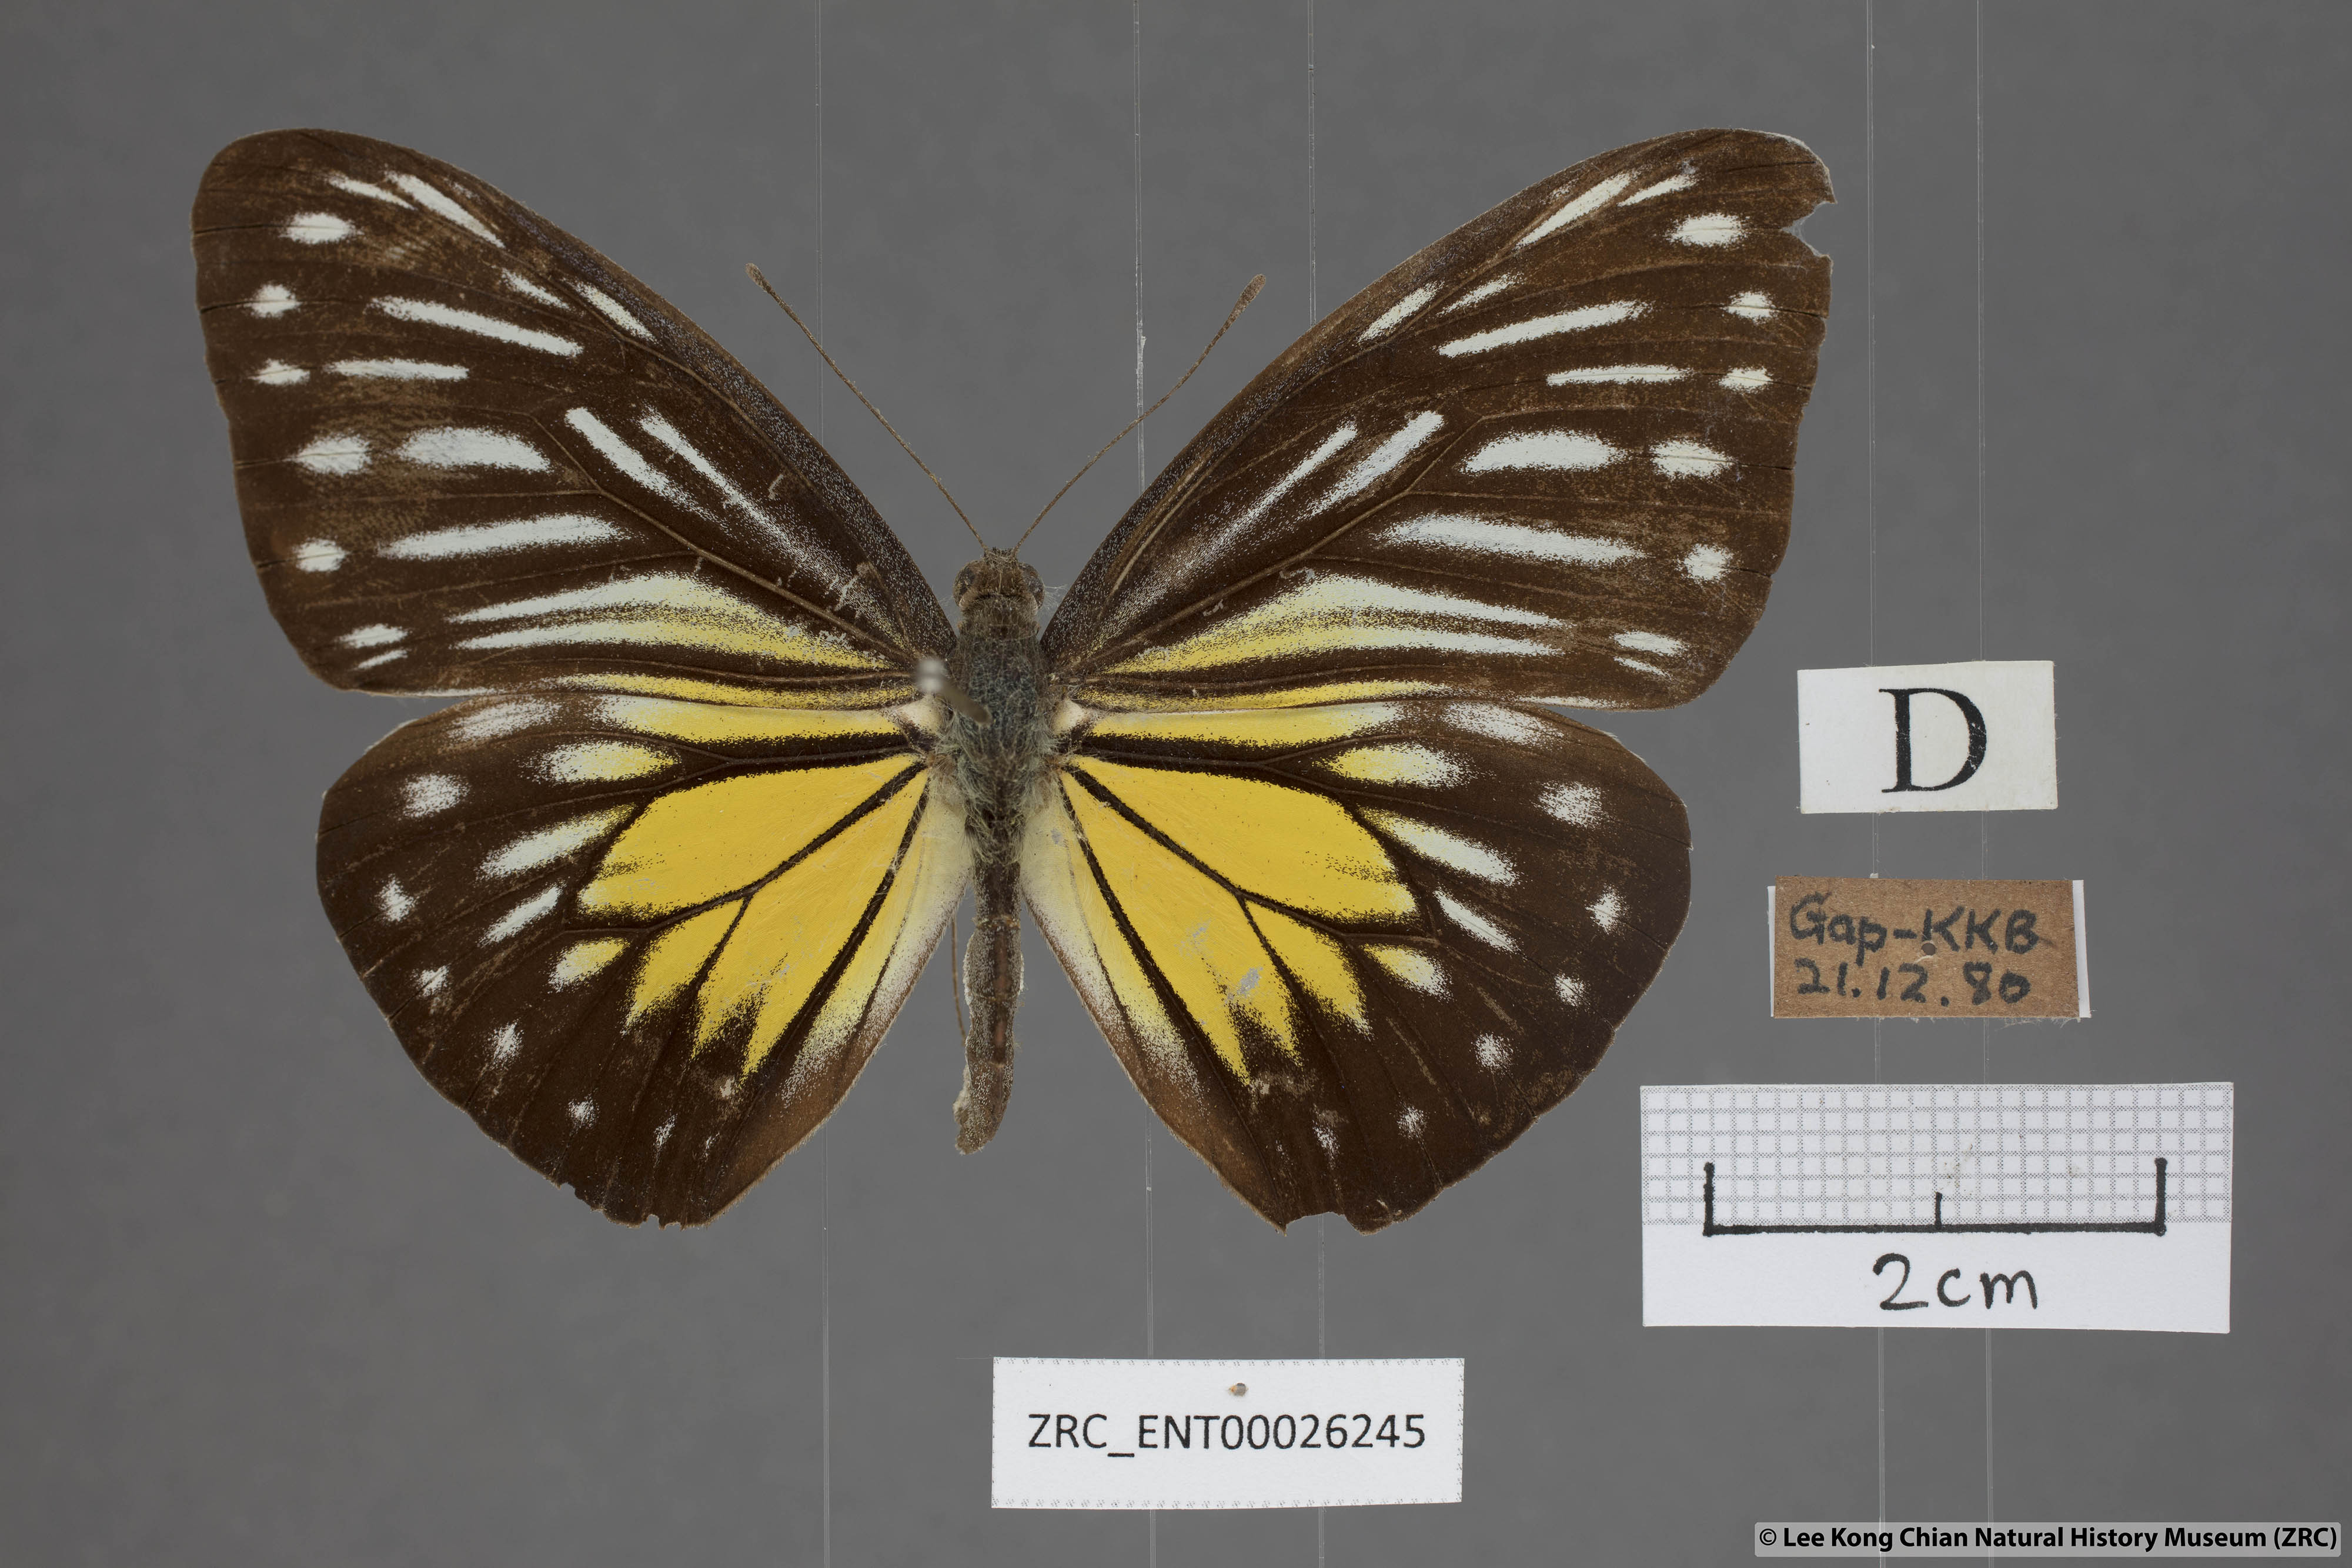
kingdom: Animalia
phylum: Arthropoda
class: Insecta
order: Lepidoptera
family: Pieridae
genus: Pareronia
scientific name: Pareronia valeria
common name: Common wanderer?
